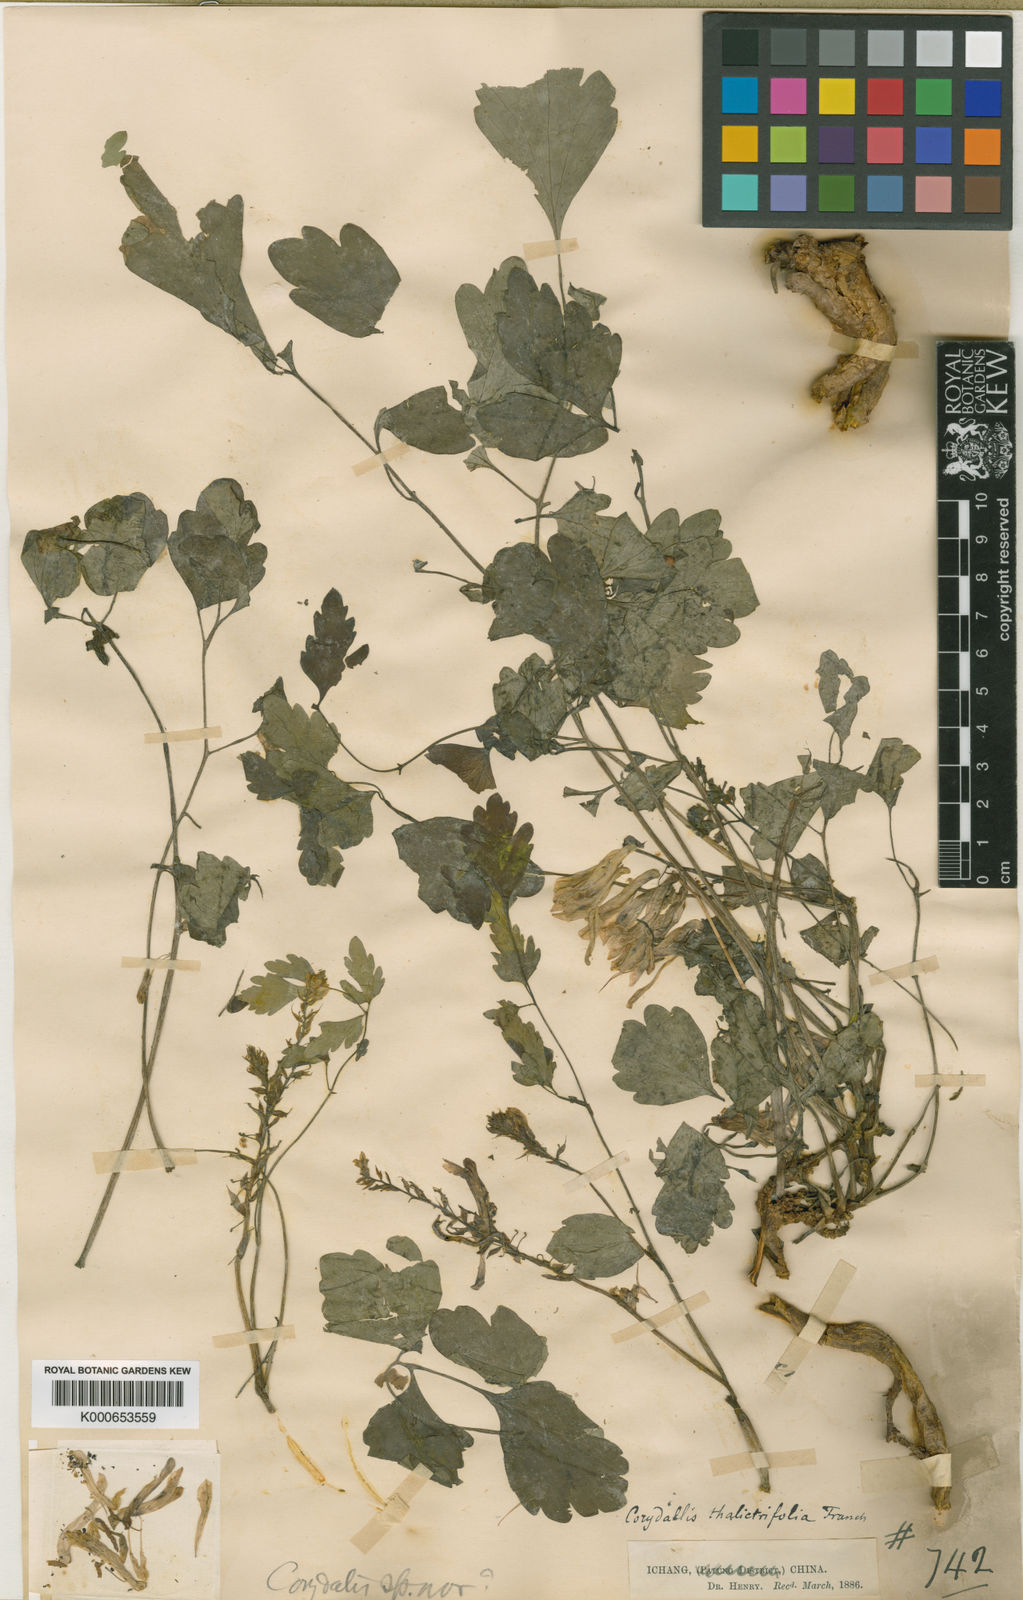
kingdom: Plantae
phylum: Tracheophyta
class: Magnoliopsida
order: Ranunculales
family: Papaveraceae
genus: Corydalis
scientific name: Corydalis saxicola
